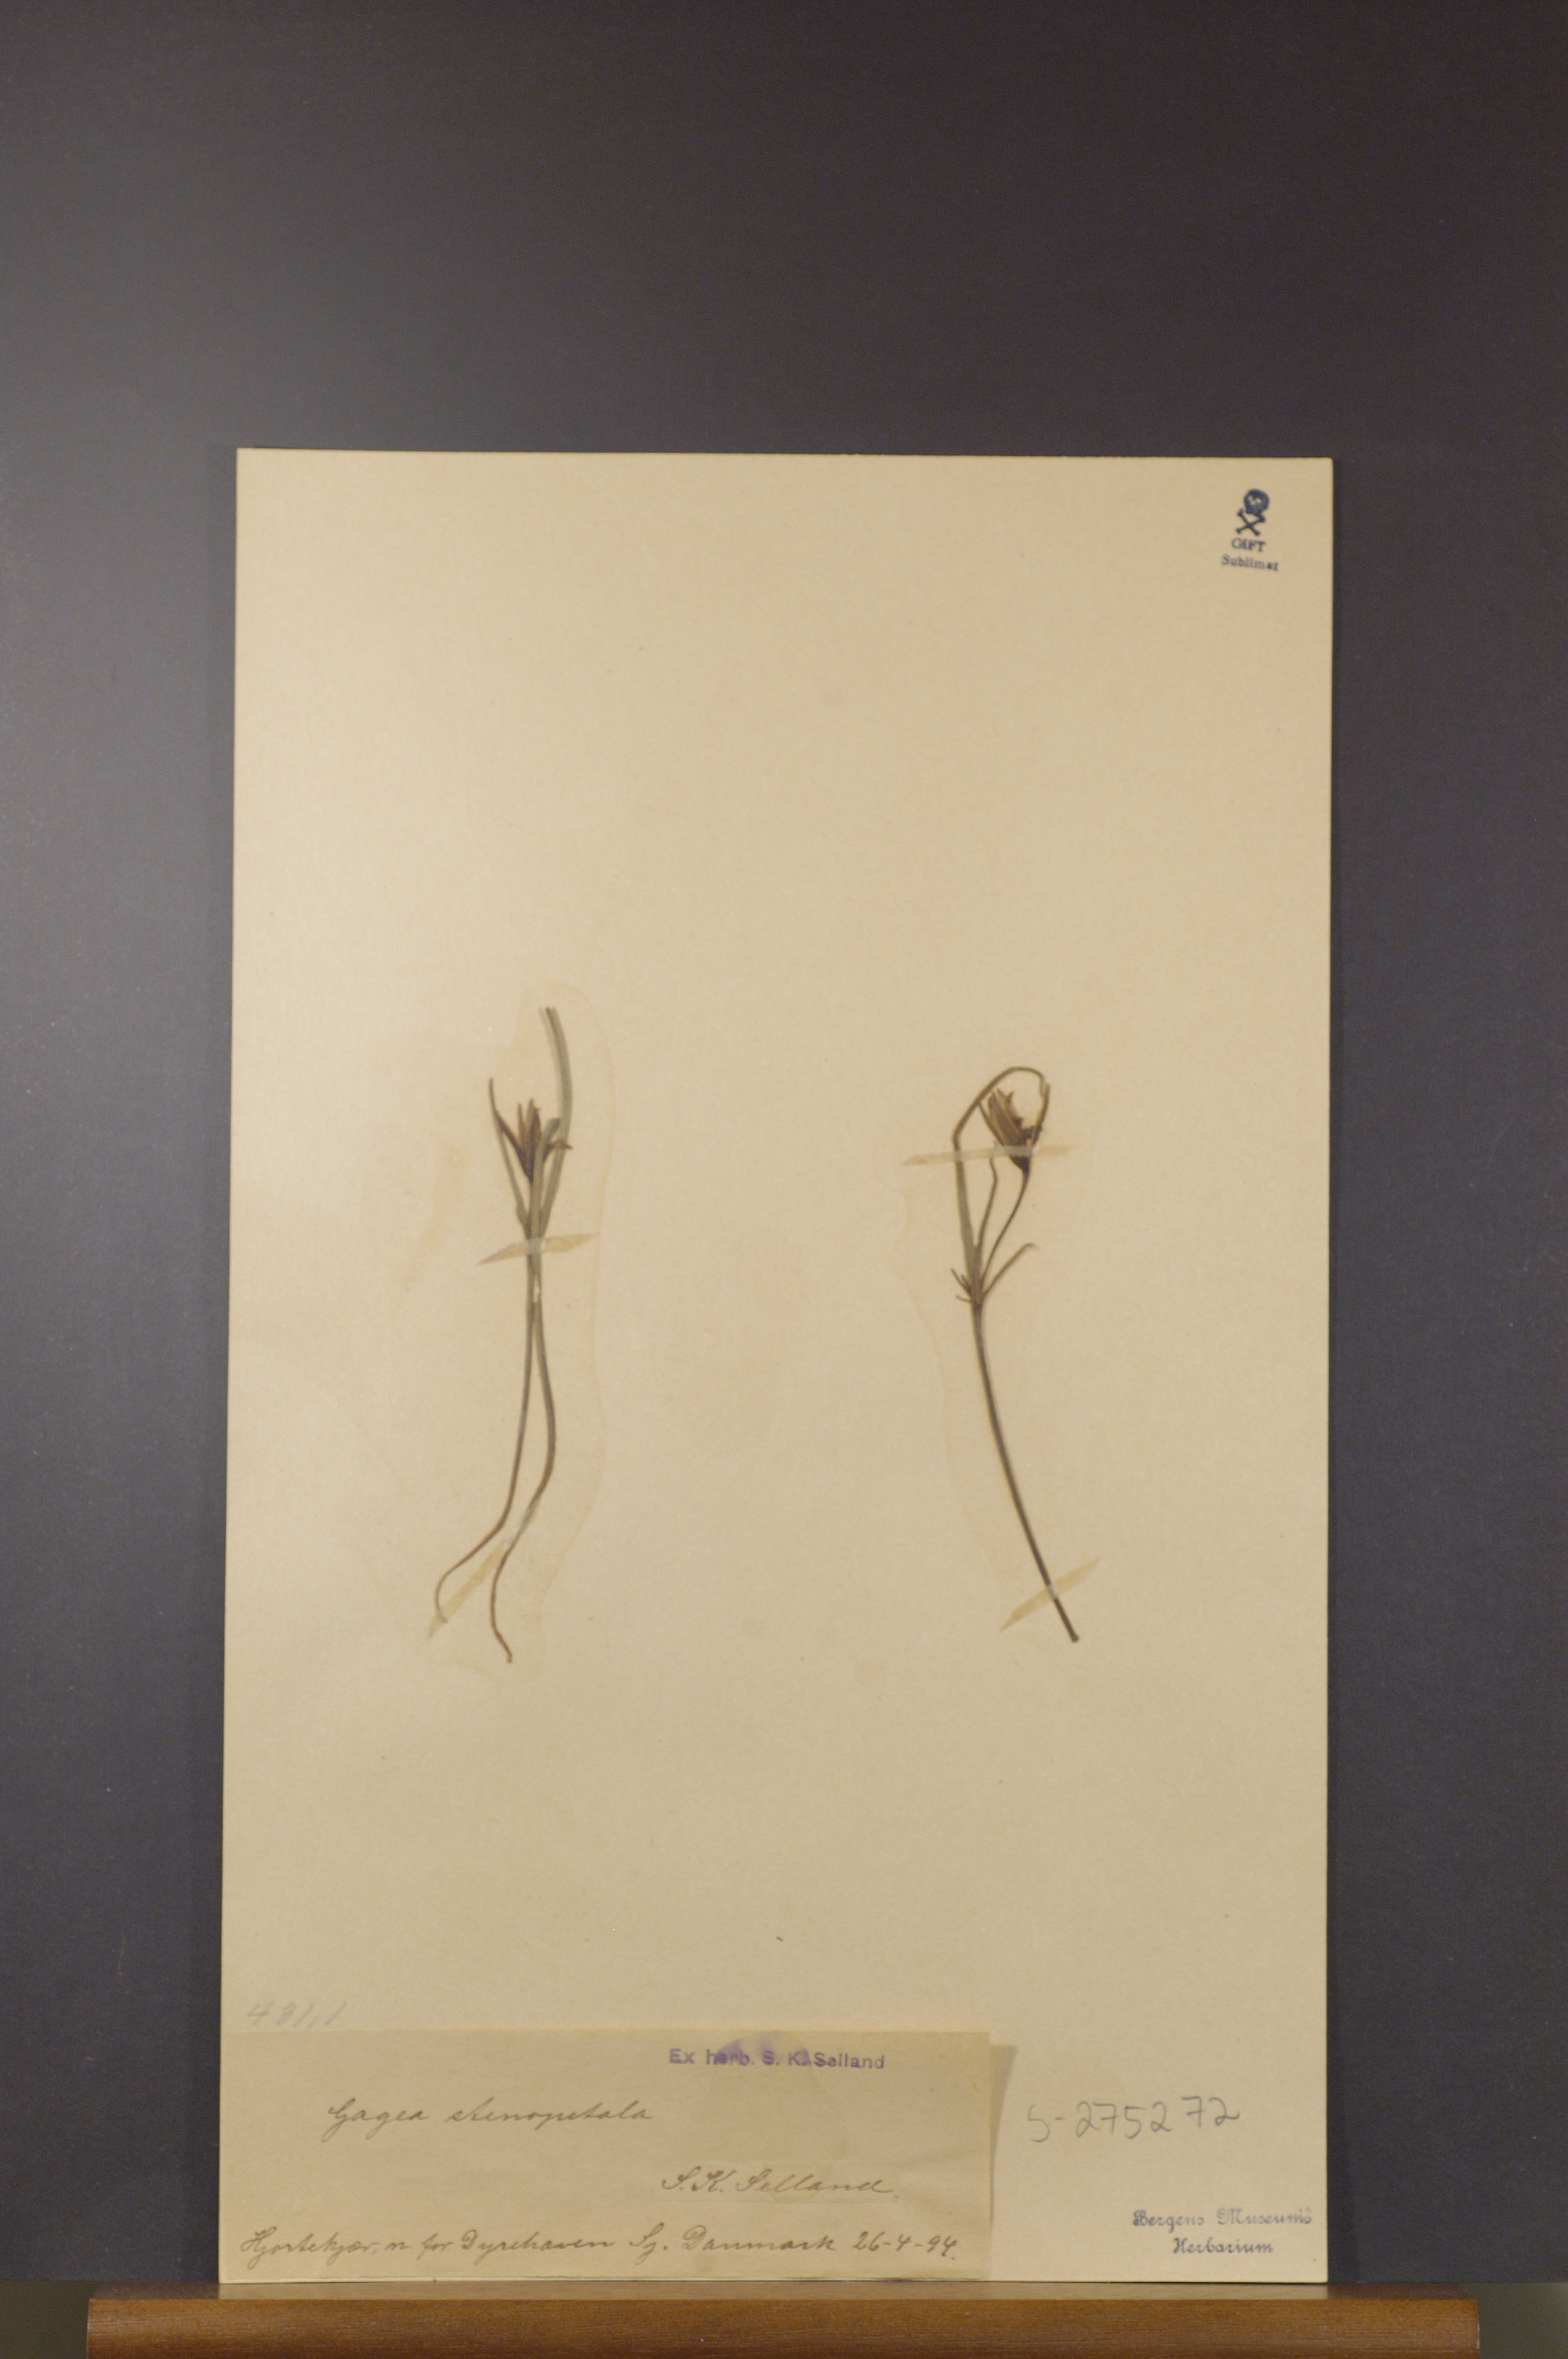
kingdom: Plantae
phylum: Tracheophyta
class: Liliopsida
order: Liliales
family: Liliaceae
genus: Gagea
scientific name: Gagea pratensis
